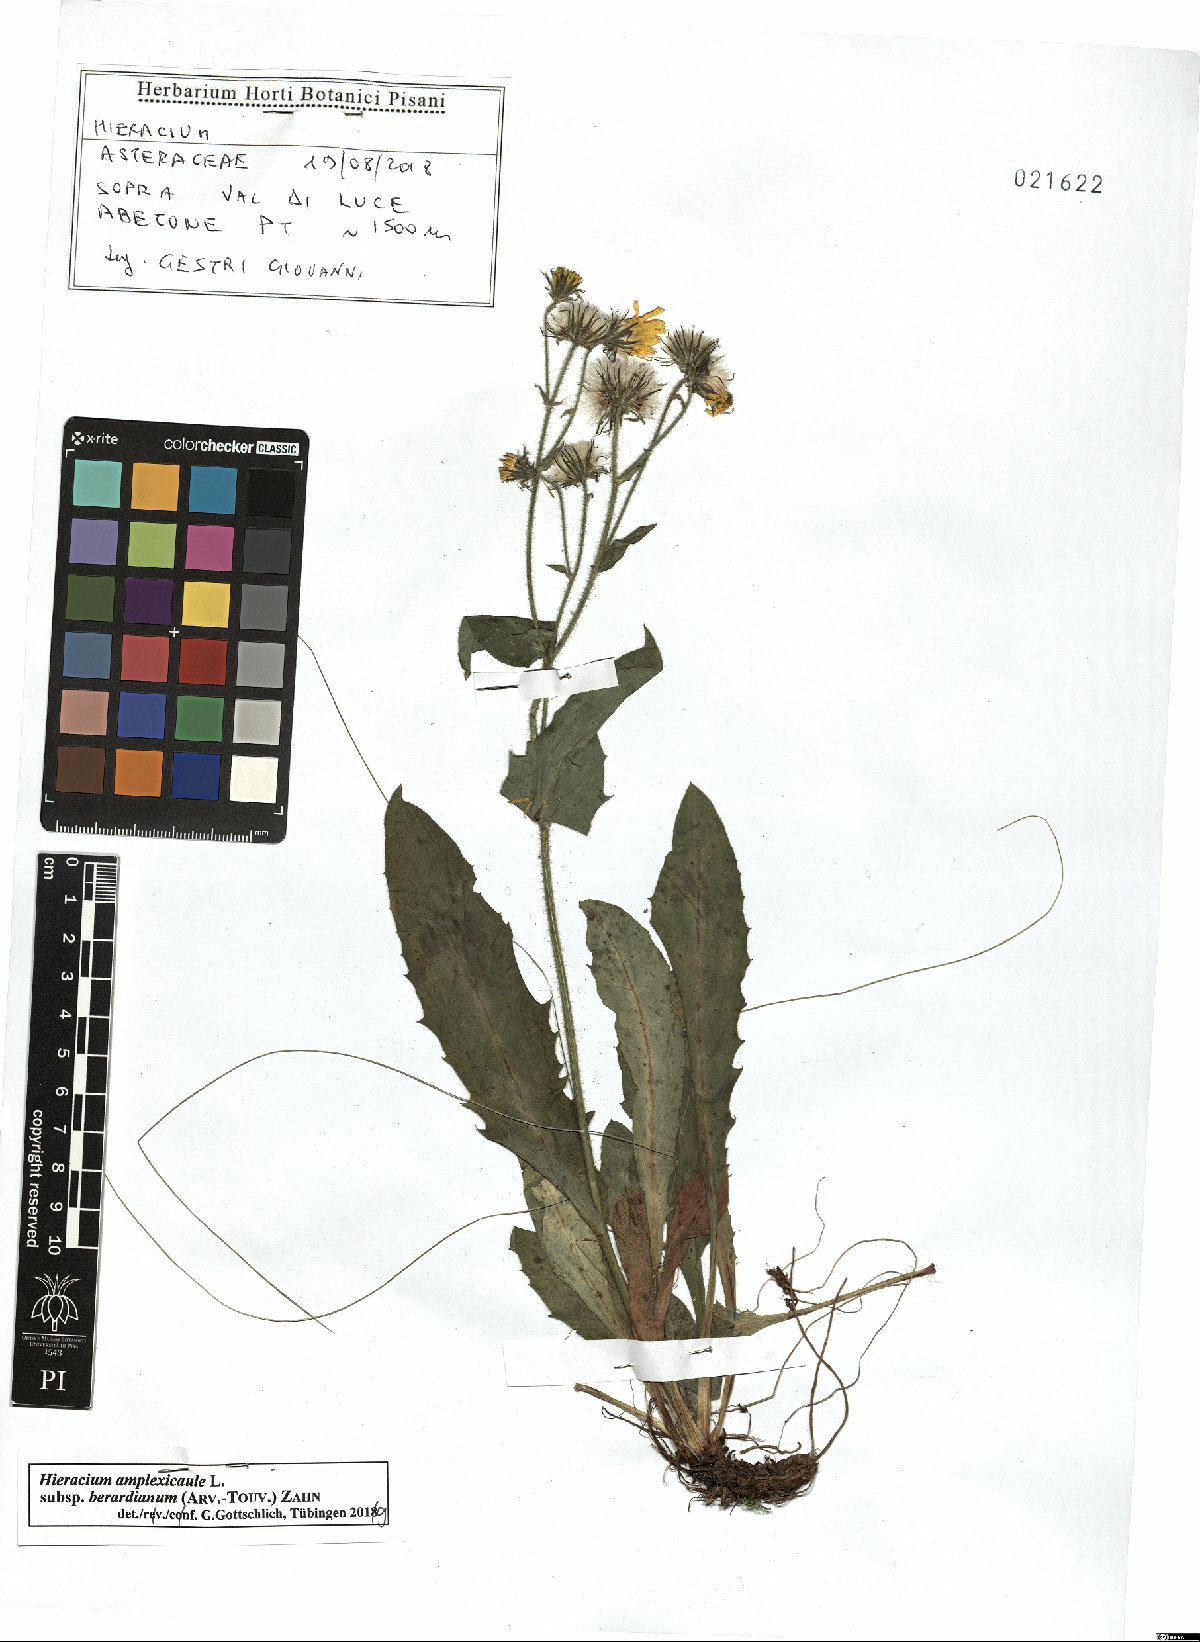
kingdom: Plantae
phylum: Tracheophyta
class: Magnoliopsida
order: Asterales
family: Asteraceae
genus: Hieracium
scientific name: Hieracium amplexicaule
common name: Sticky hawkweed
